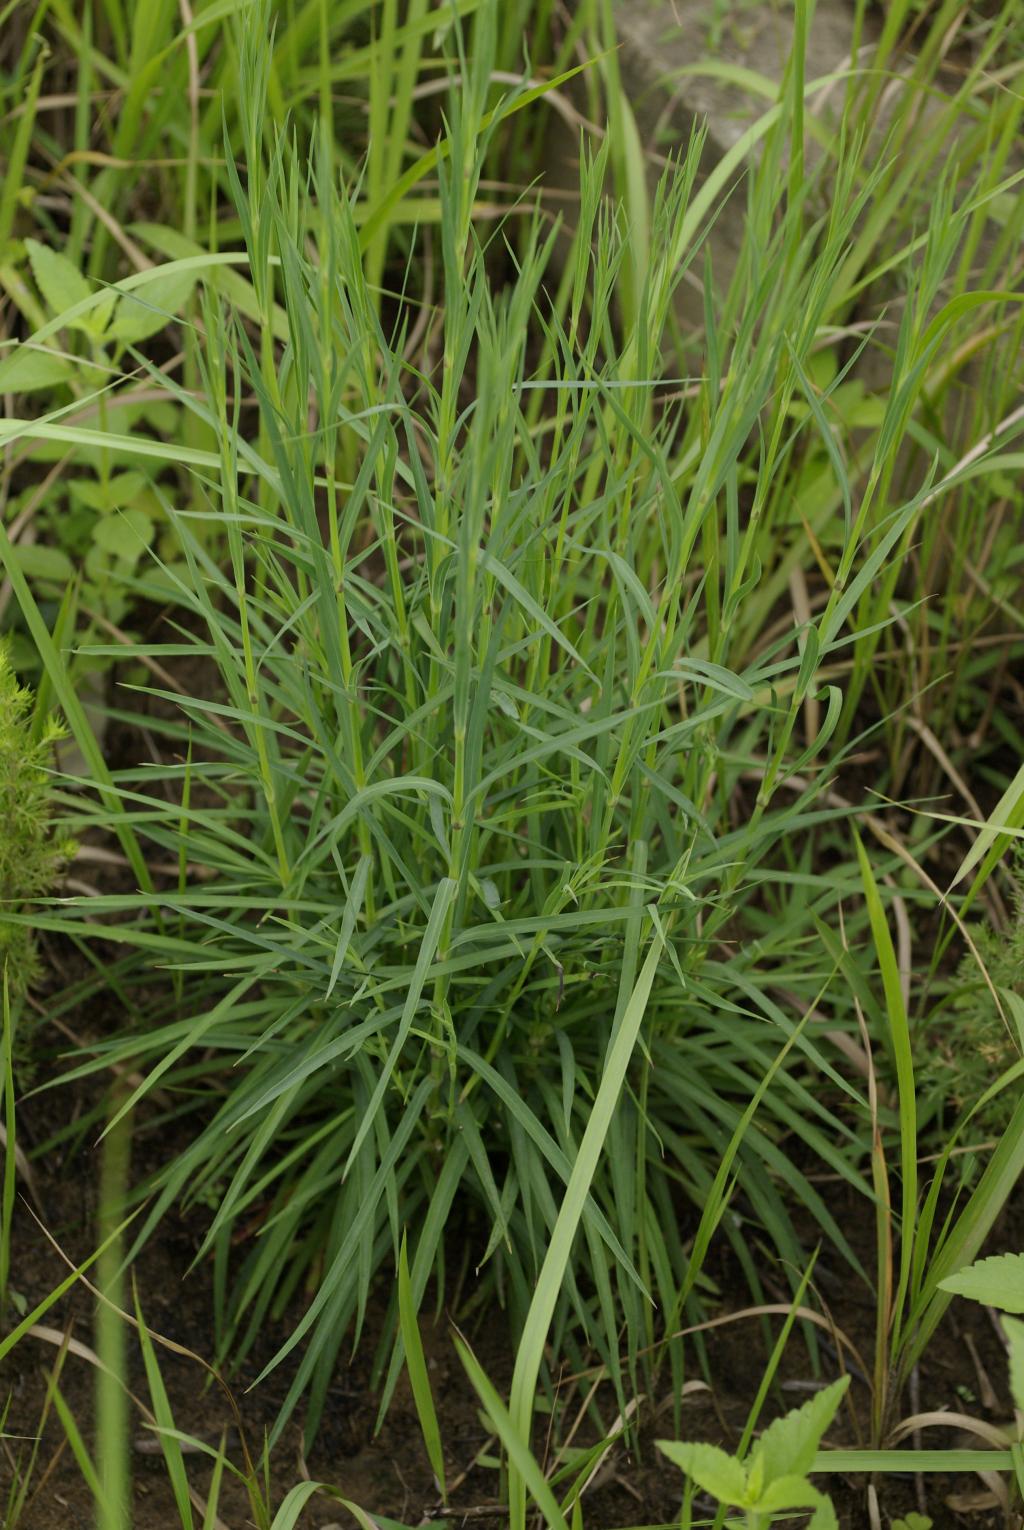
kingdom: Plantae
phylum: Tracheophyta
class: Magnoliopsida
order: Caryophyllales
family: Caryophyllaceae
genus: Dianthus
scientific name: Dianthus longicalyx
